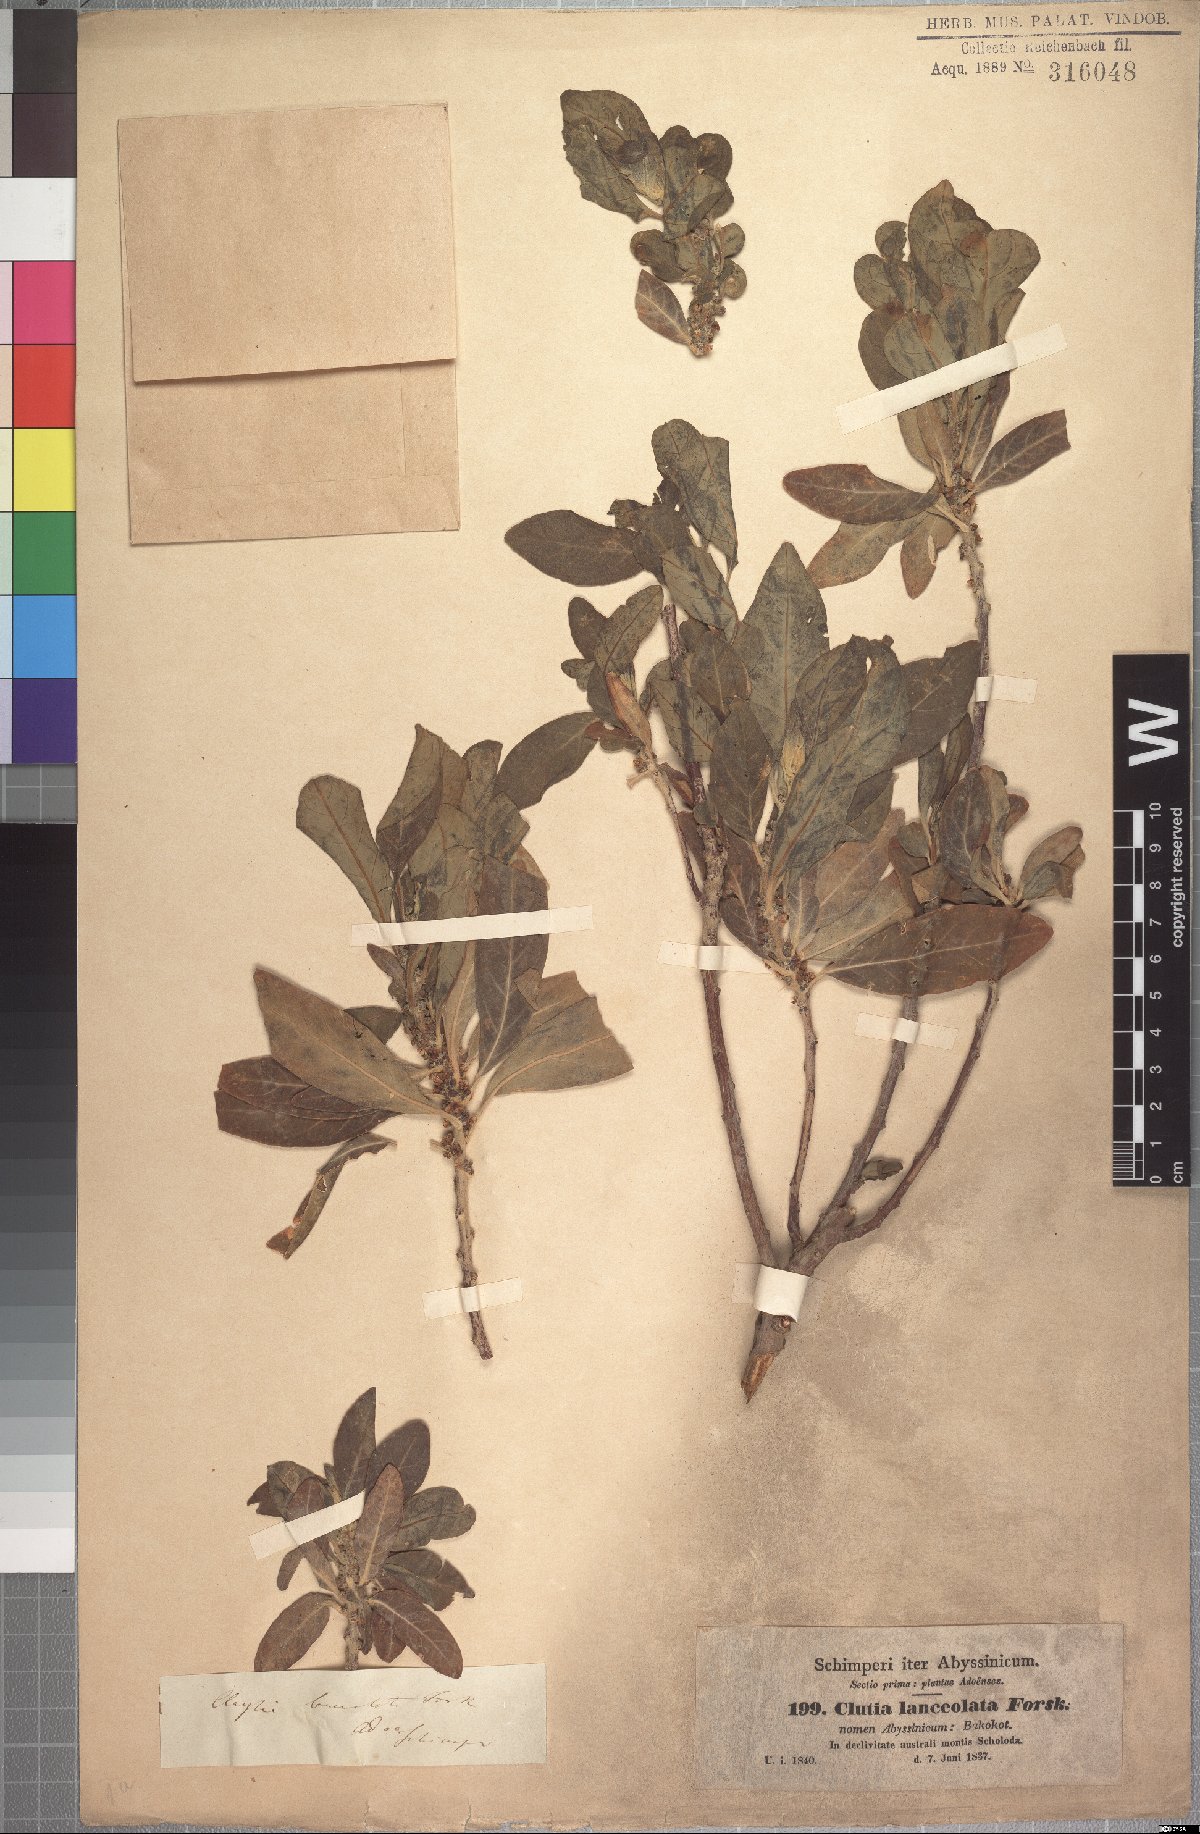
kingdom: Plantae
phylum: Tracheophyta
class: Magnoliopsida
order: Malpighiales
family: Peraceae
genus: Clutia
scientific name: Clutia lanceolata
